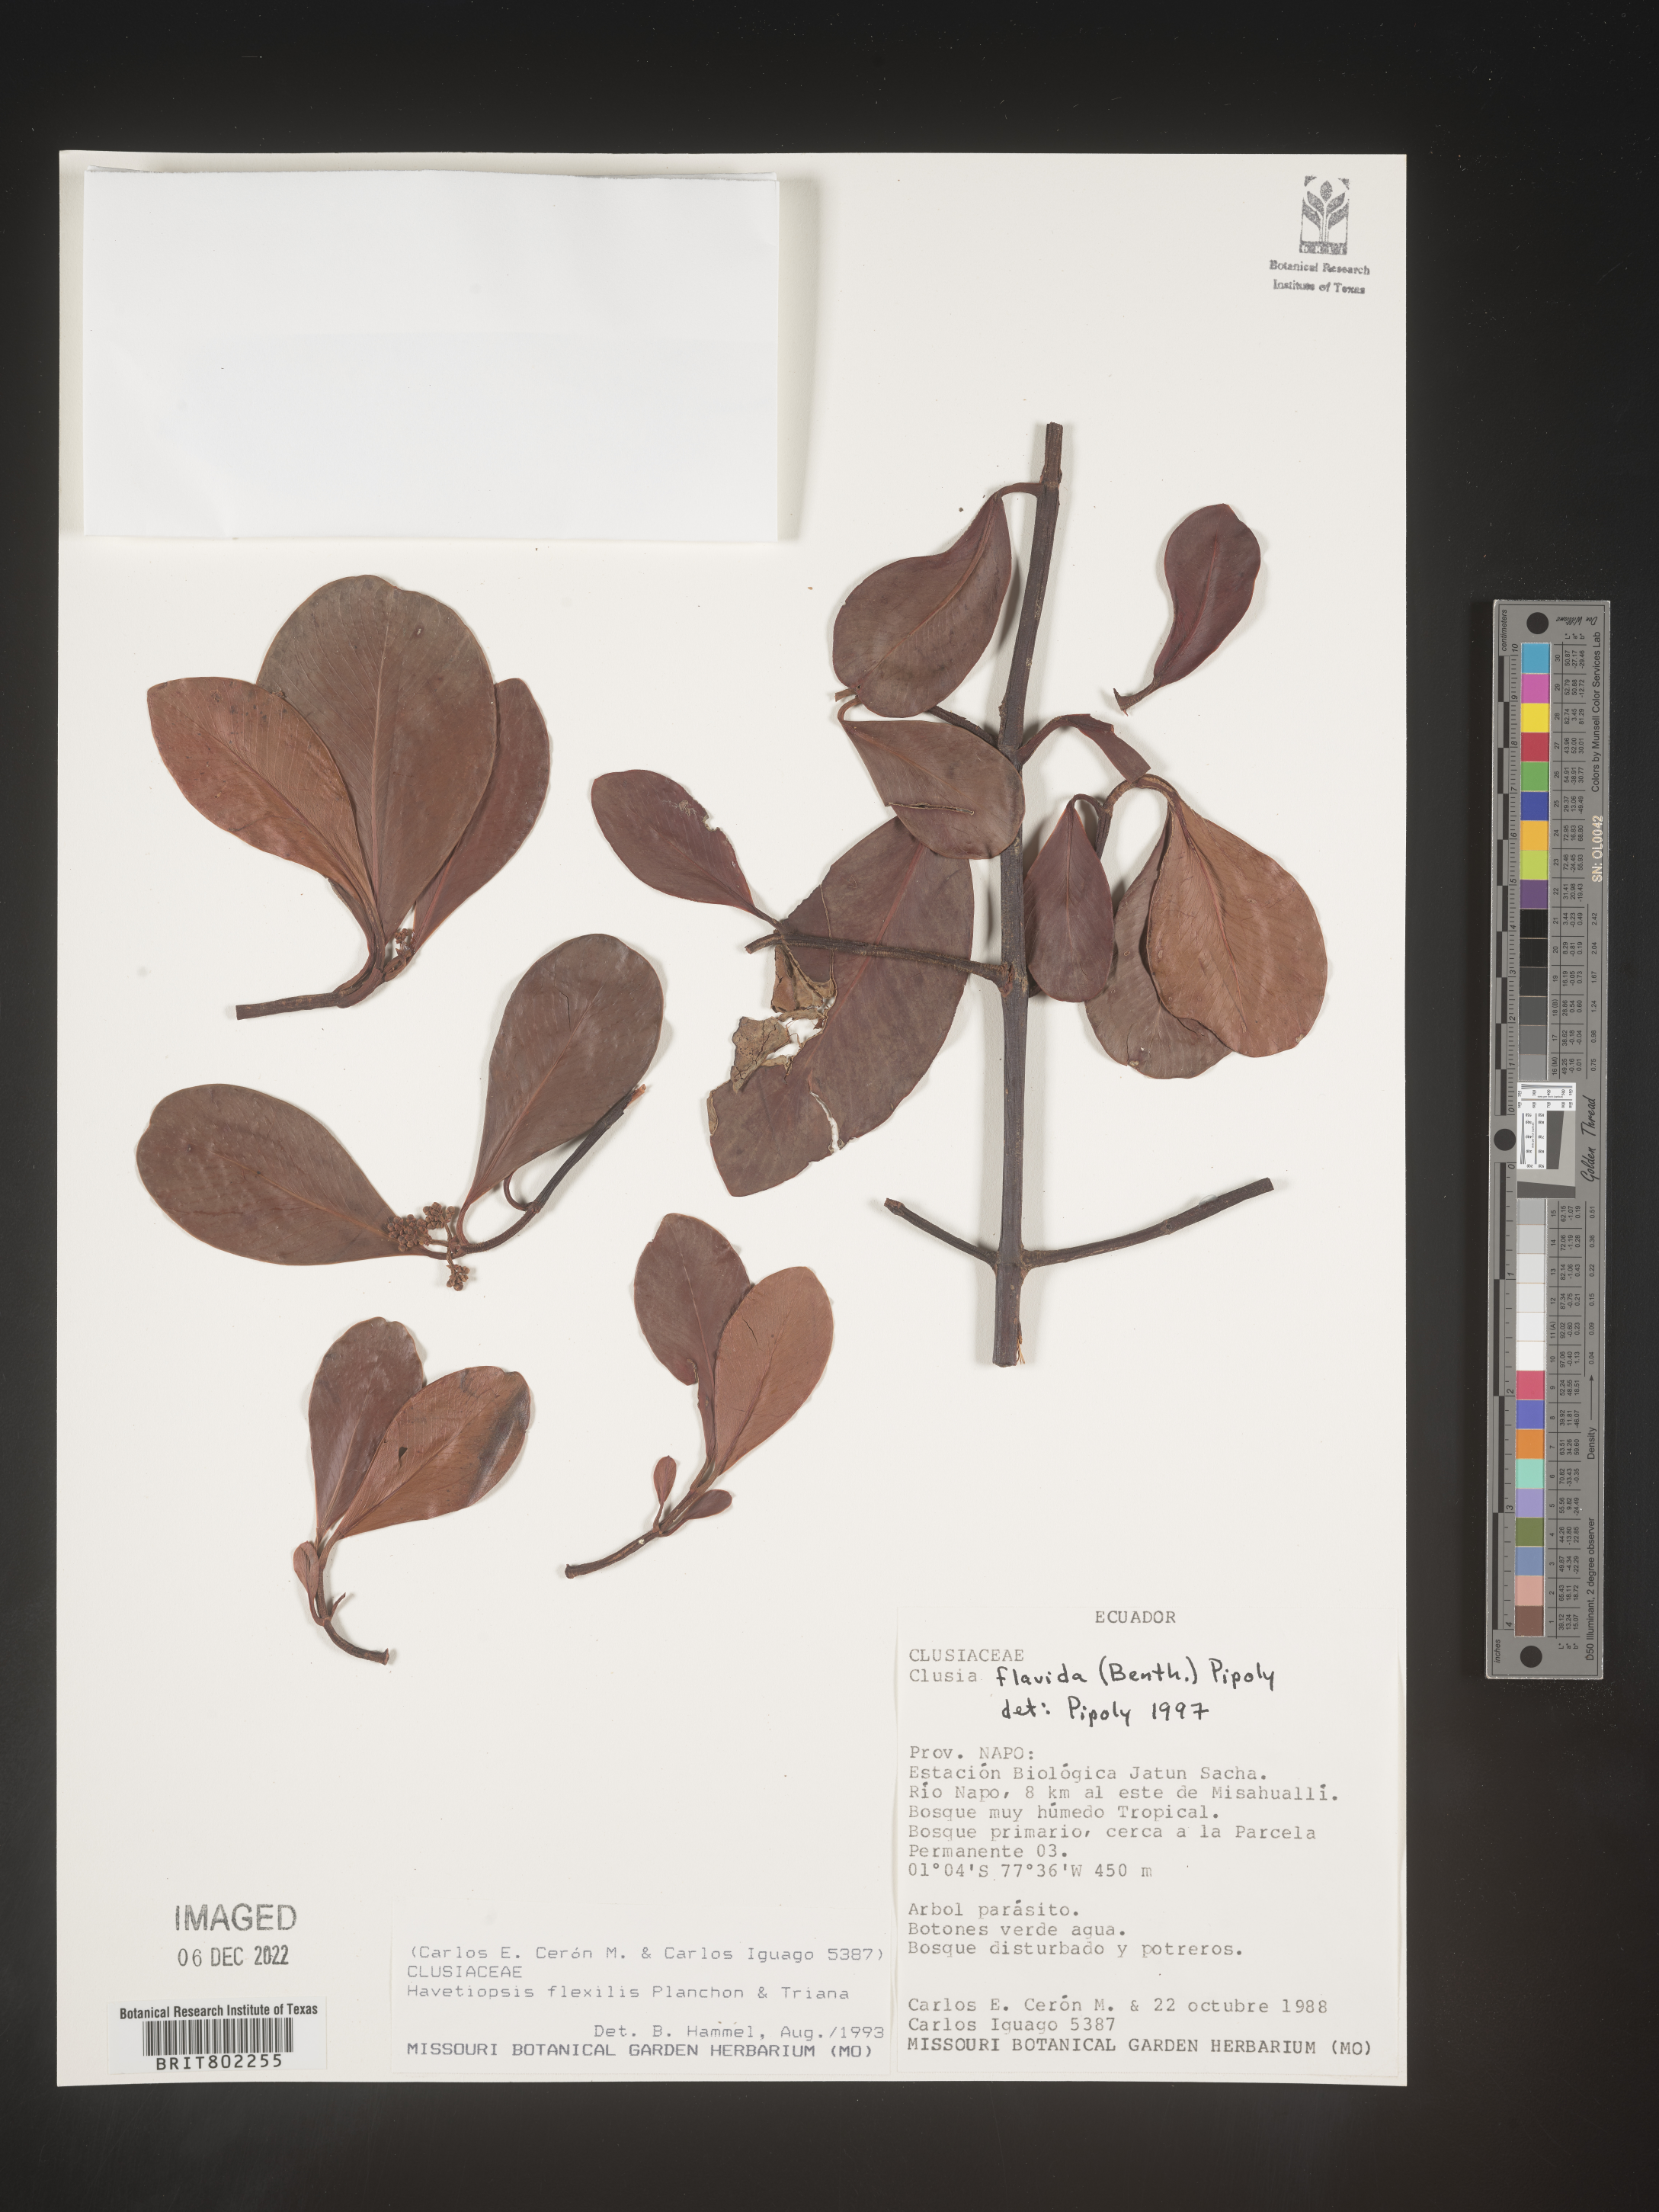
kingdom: Plantae
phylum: Tracheophyta
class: Magnoliopsida
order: Malpighiales
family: Clusiaceae
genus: Clusia
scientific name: Clusia flavida
